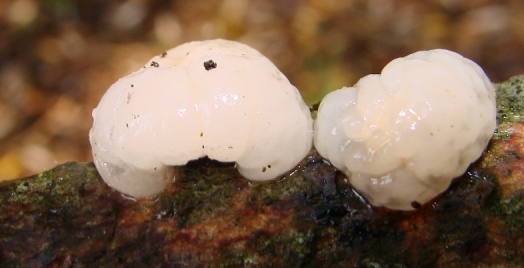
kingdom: Fungi
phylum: Basidiomycota
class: Tremellomycetes
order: Tremellales
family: Naemateliaceae
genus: Naematelia
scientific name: Naematelia encephala
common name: fyrre-bævresvamp
